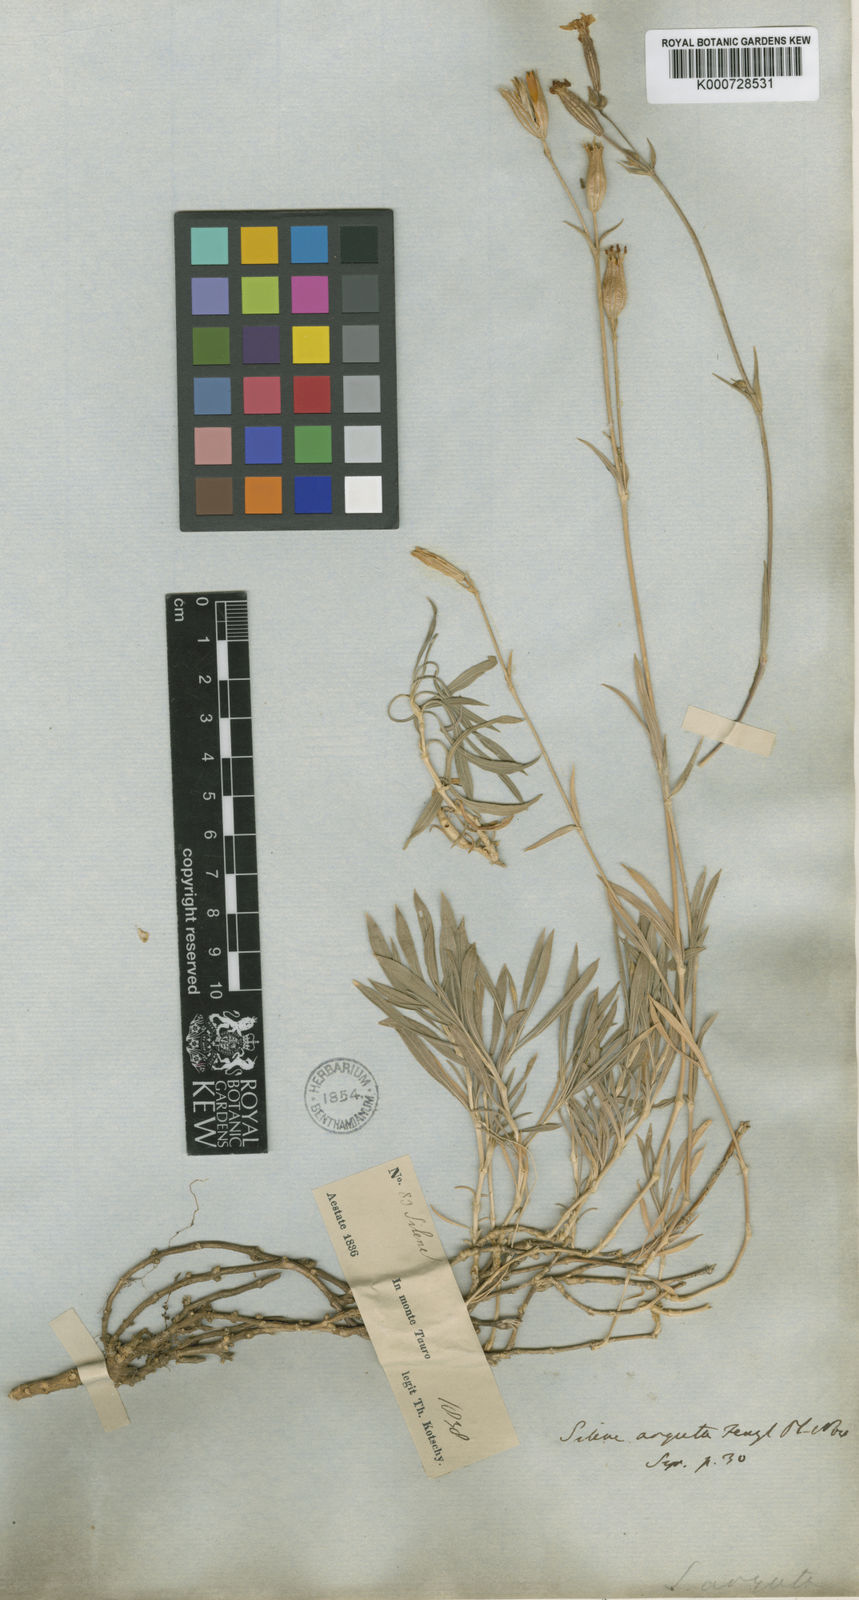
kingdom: Plantae
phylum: Tracheophyta
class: Magnoliopsida
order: Caryophyllales
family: Caryophyllaceae
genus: Silene
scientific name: Silene arguta
